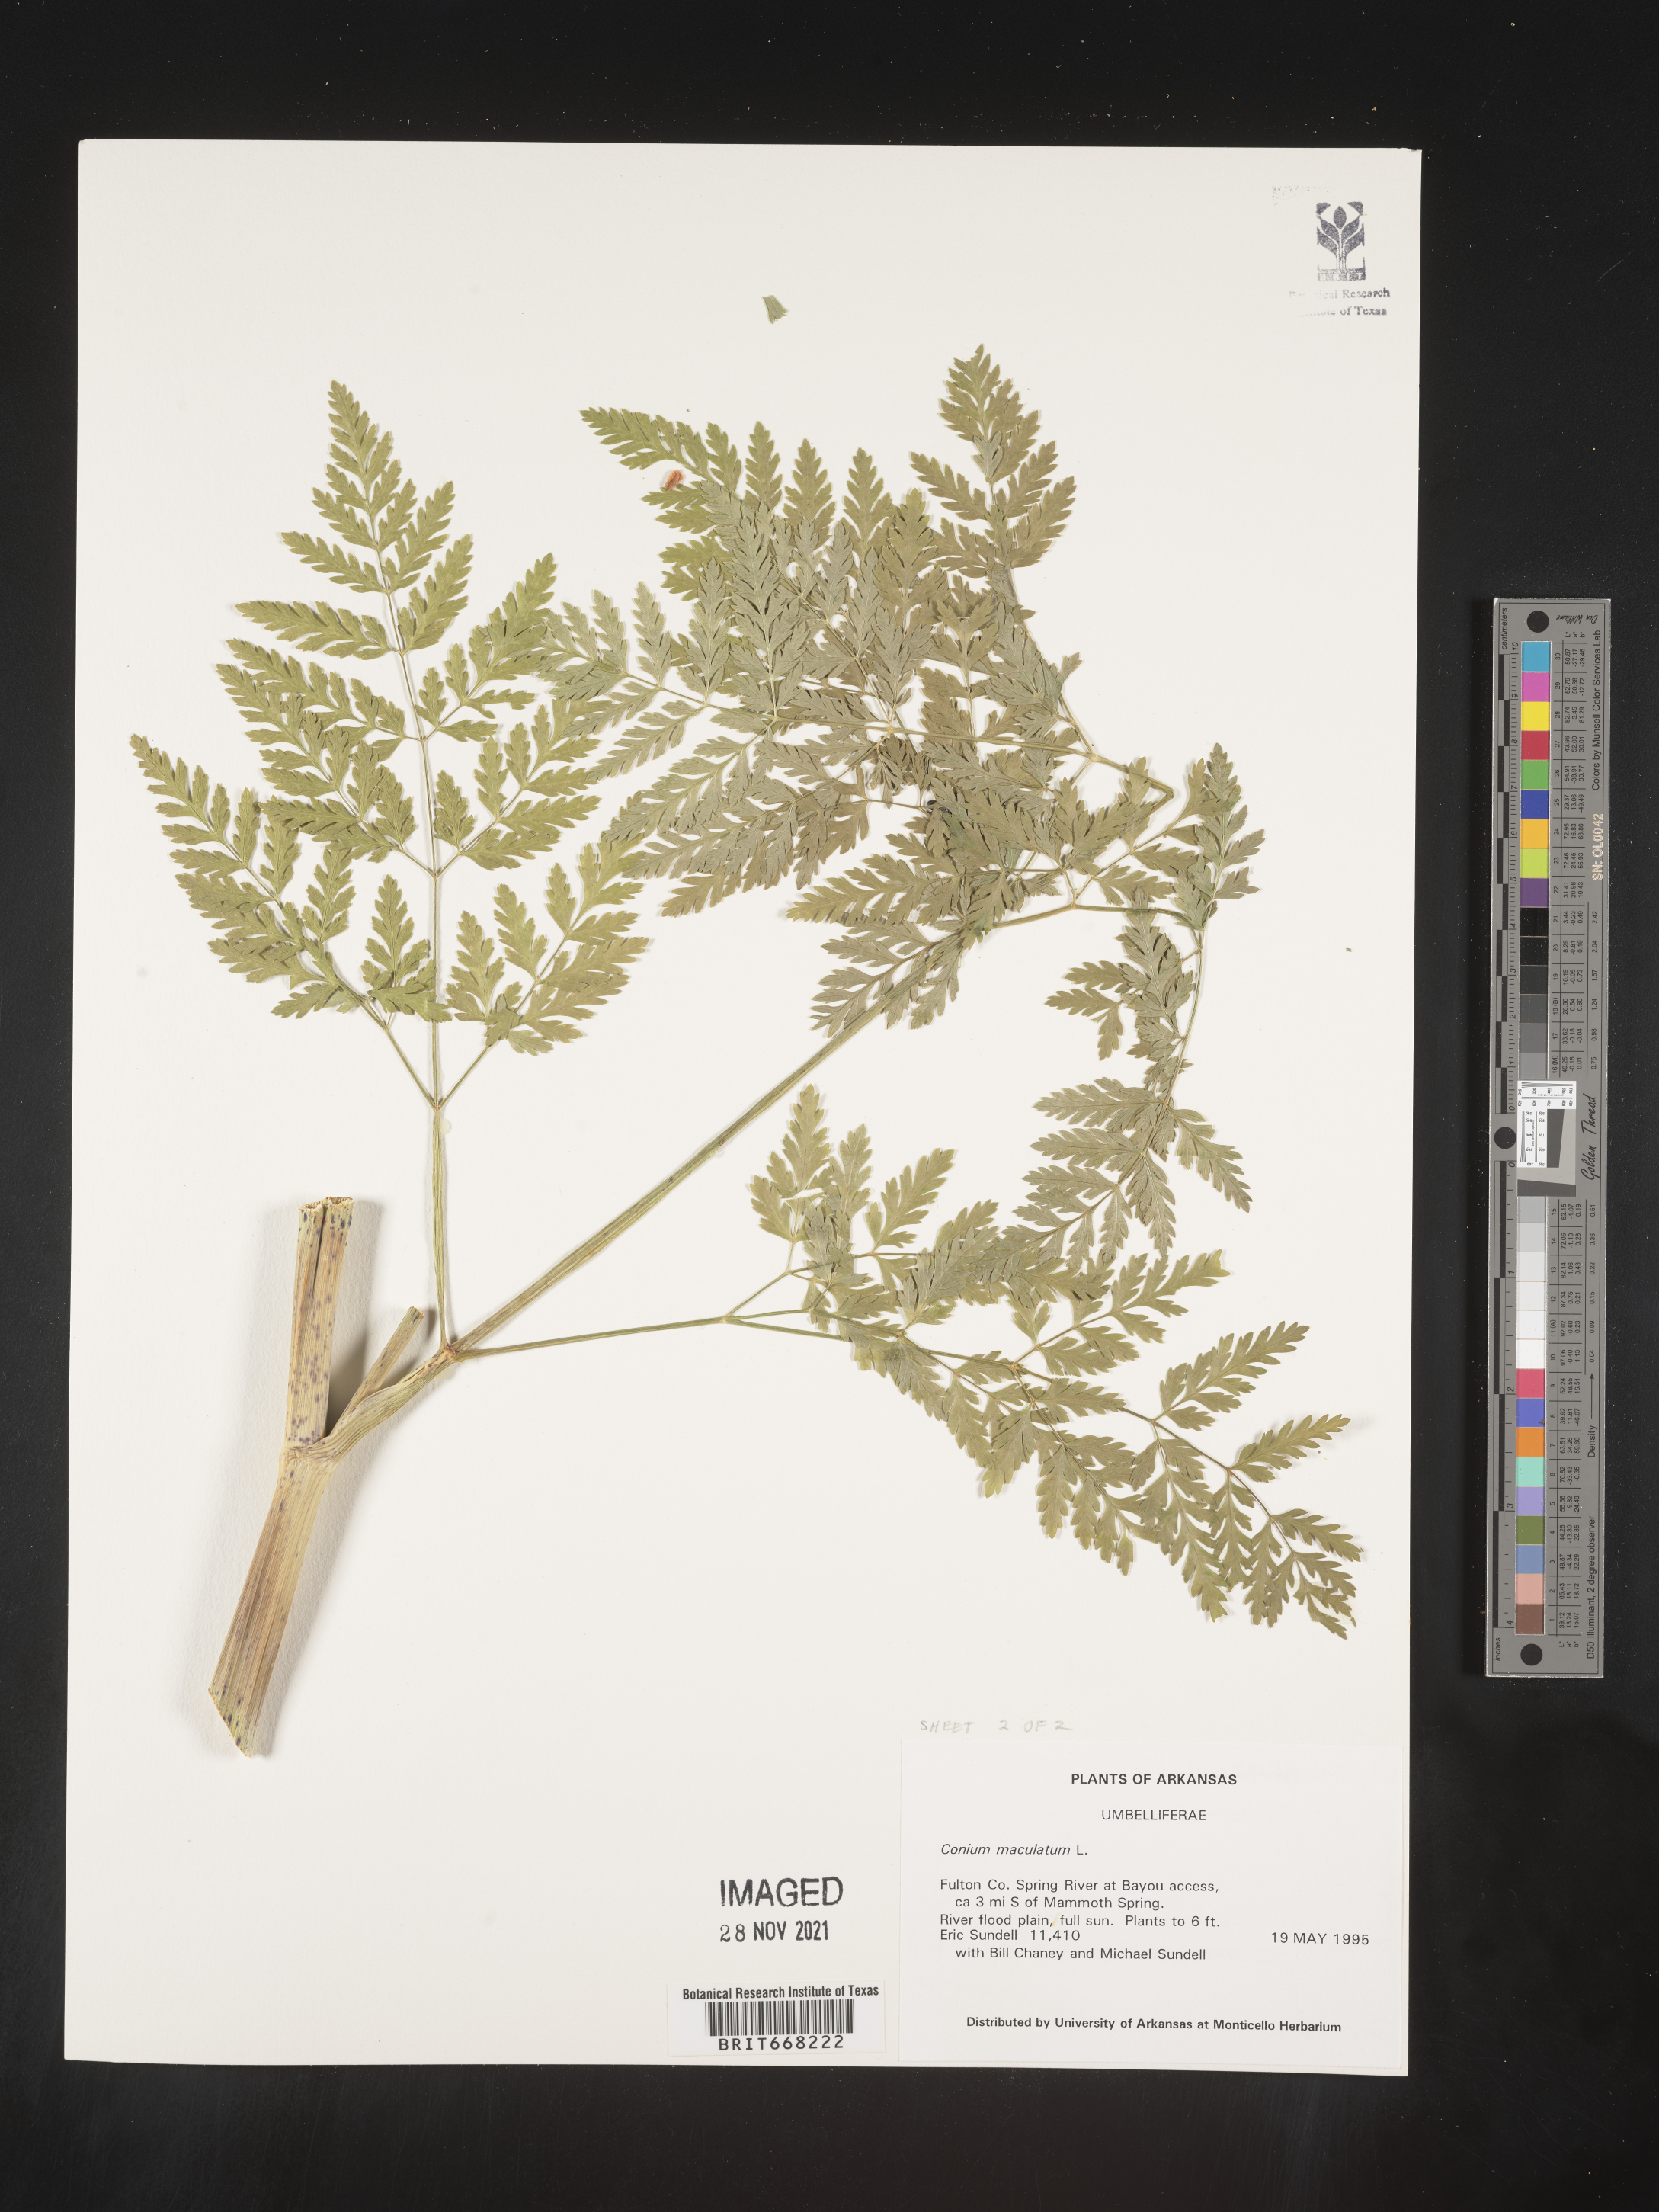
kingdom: Plantae
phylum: Tracheophyta
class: Magnoliopsida
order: Apiales
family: Apiaceae
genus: Conium
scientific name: Conium maculatum
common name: Hemlock
